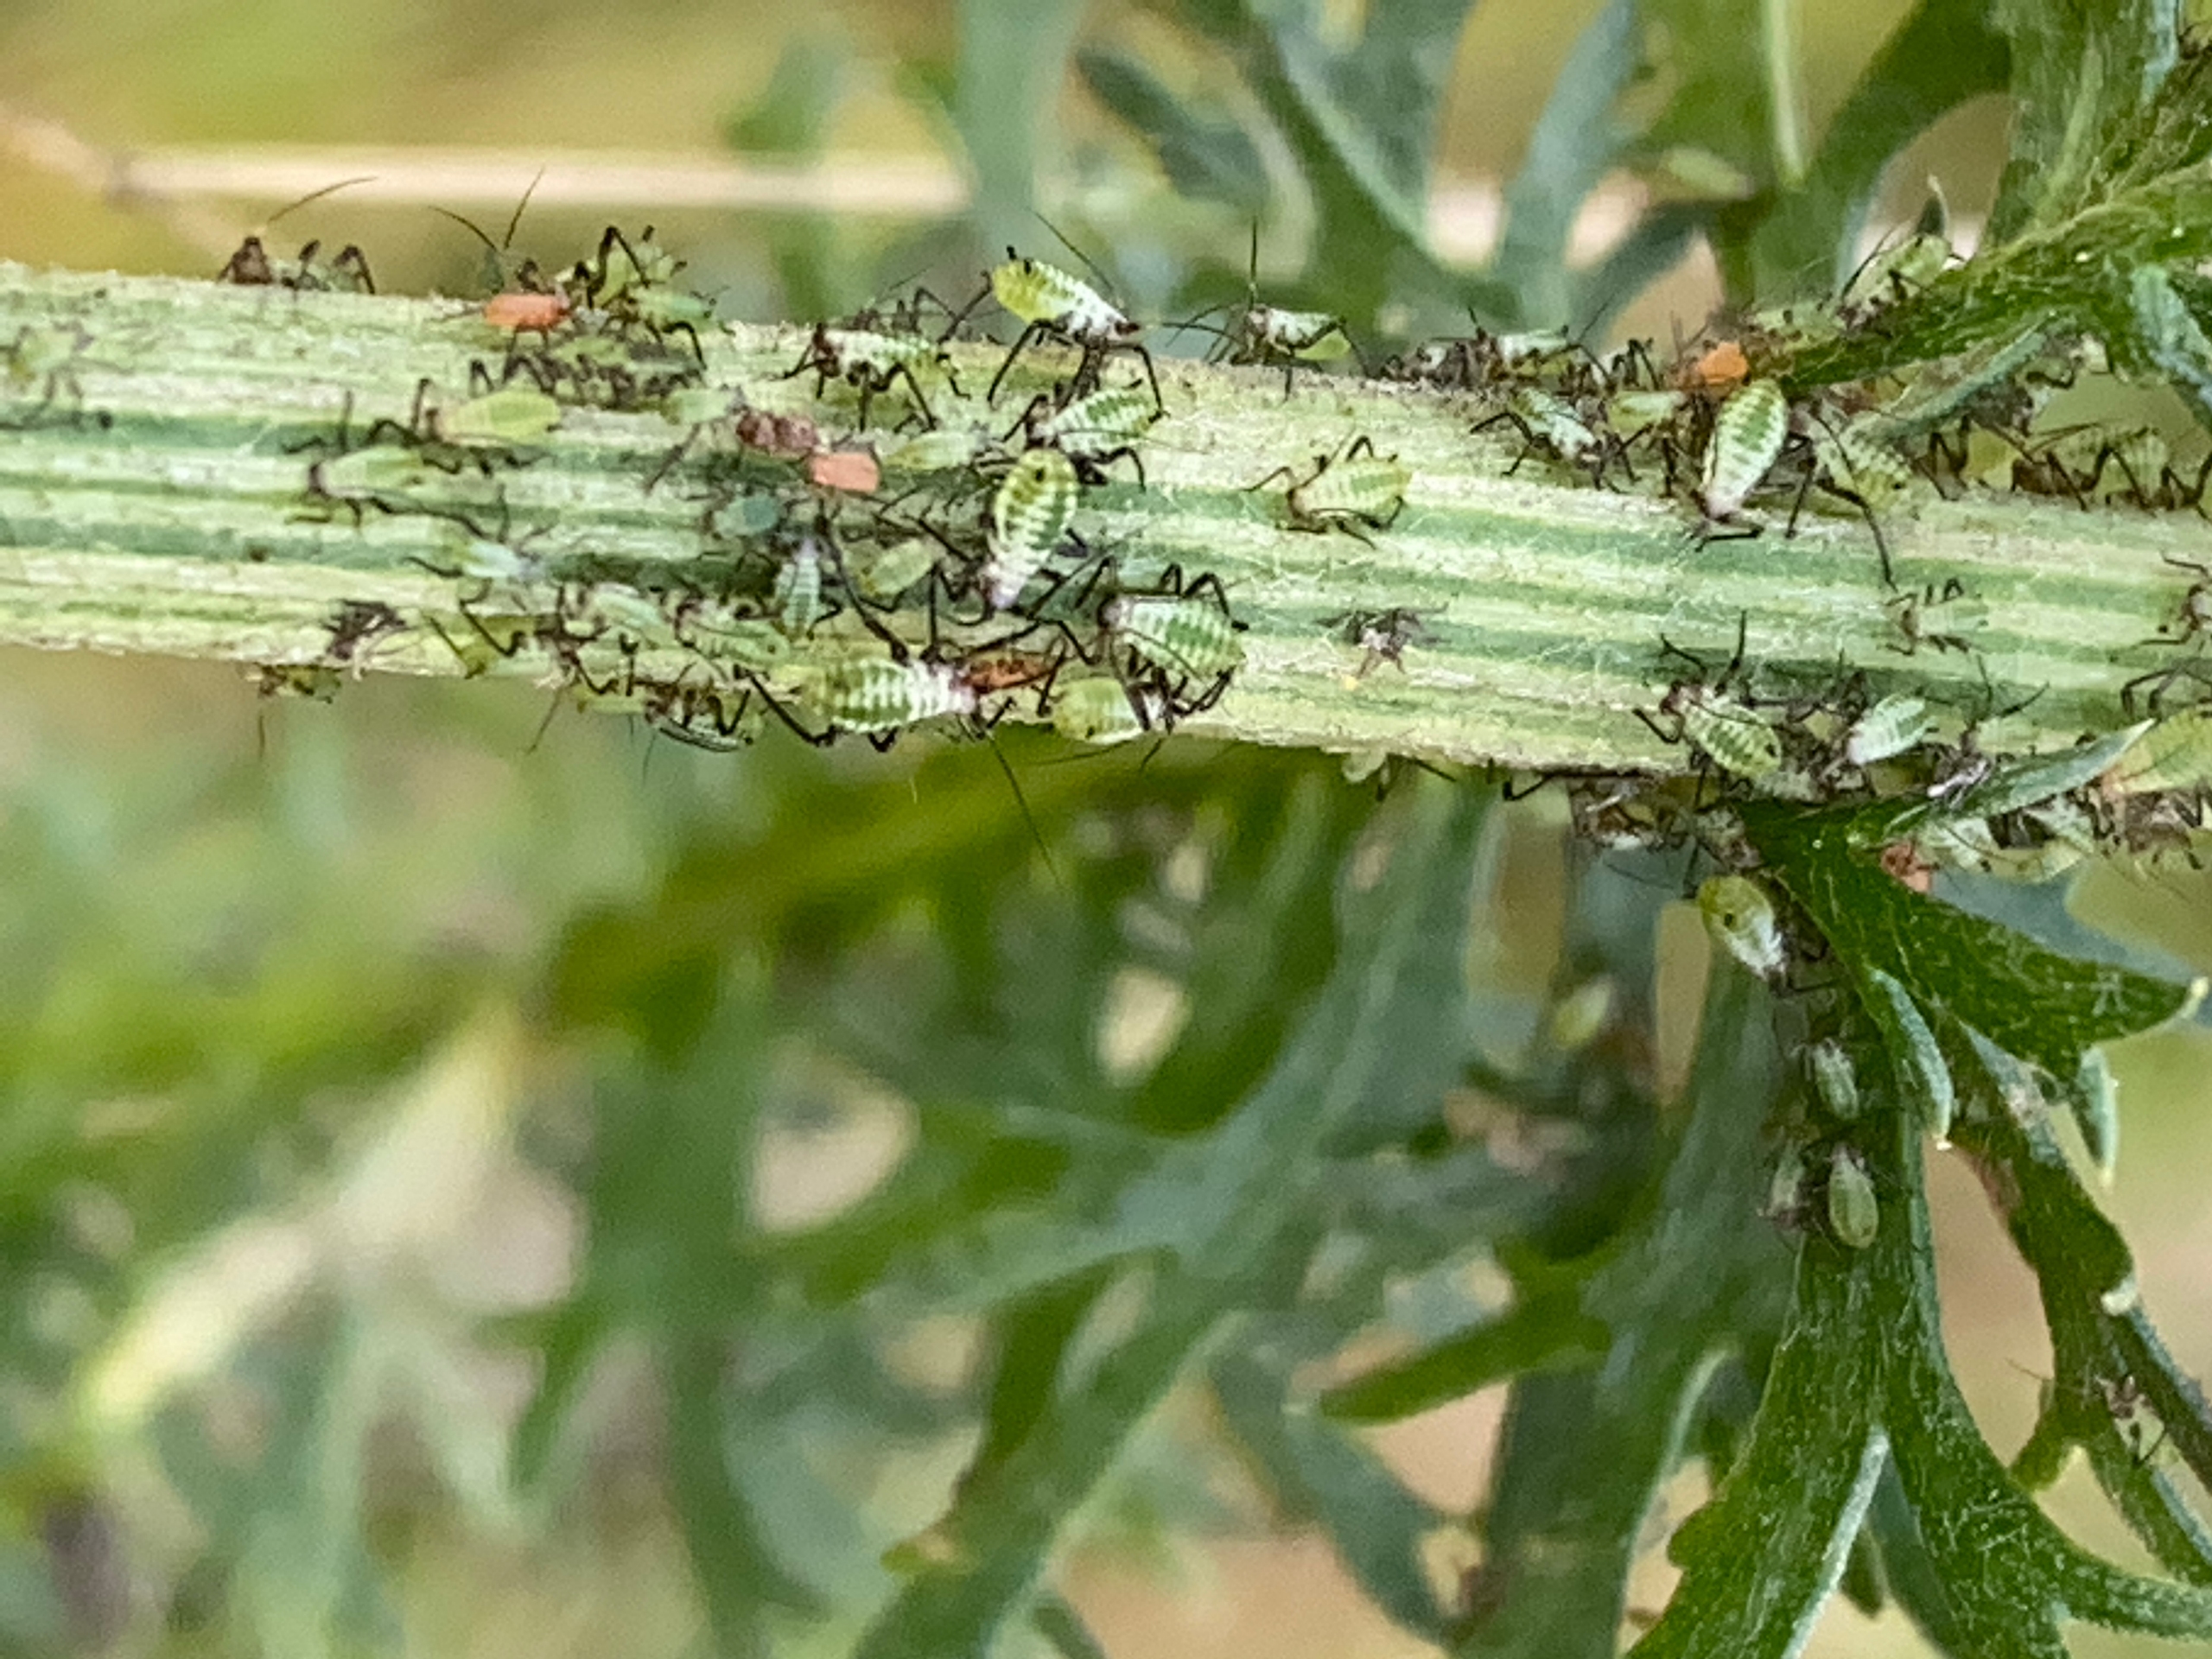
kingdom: Animalia
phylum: Arthropoda
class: Insecta
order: Hemiptera
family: Aphididae
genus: Macrosiphoniella
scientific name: Macrosiphoniella millefolii
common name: Røllikebladlus
